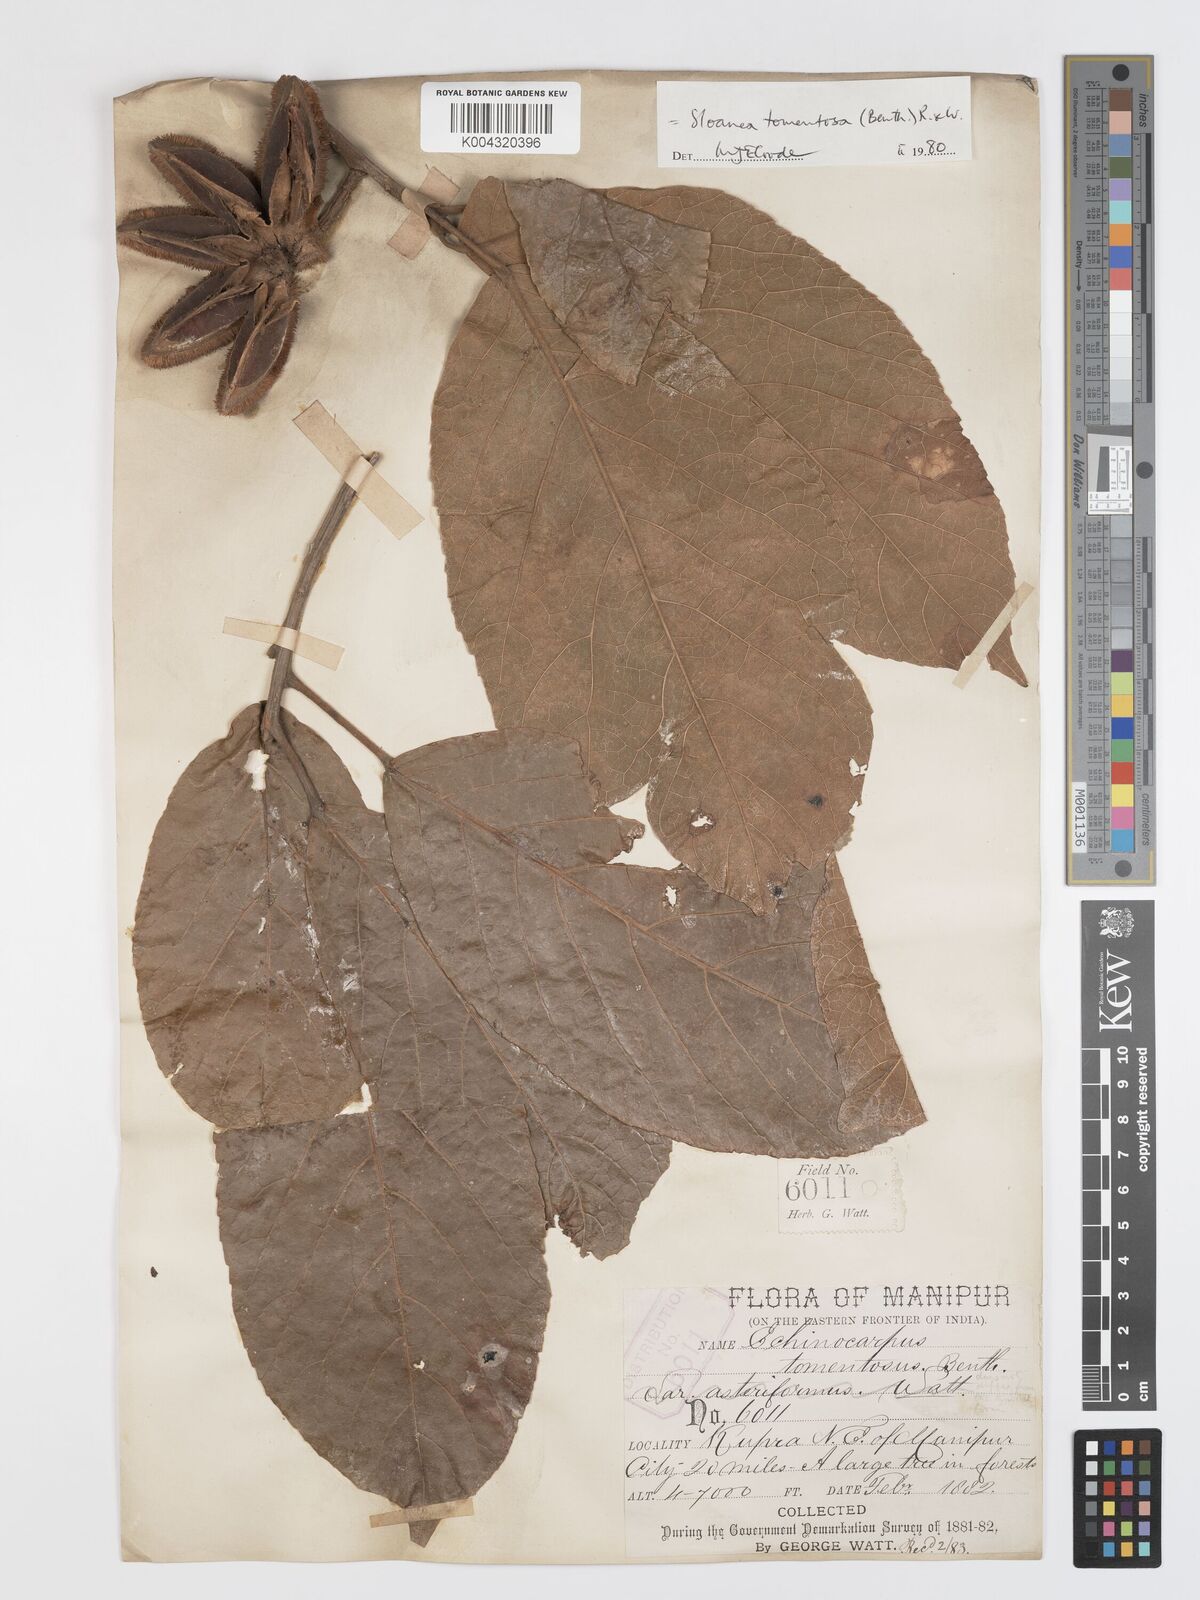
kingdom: Plantae
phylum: Tracheophyta
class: Magnoliopsida
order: Oxalidales
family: Elaeocarpaceae
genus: Sloanea
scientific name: Sloanea tomentosa
